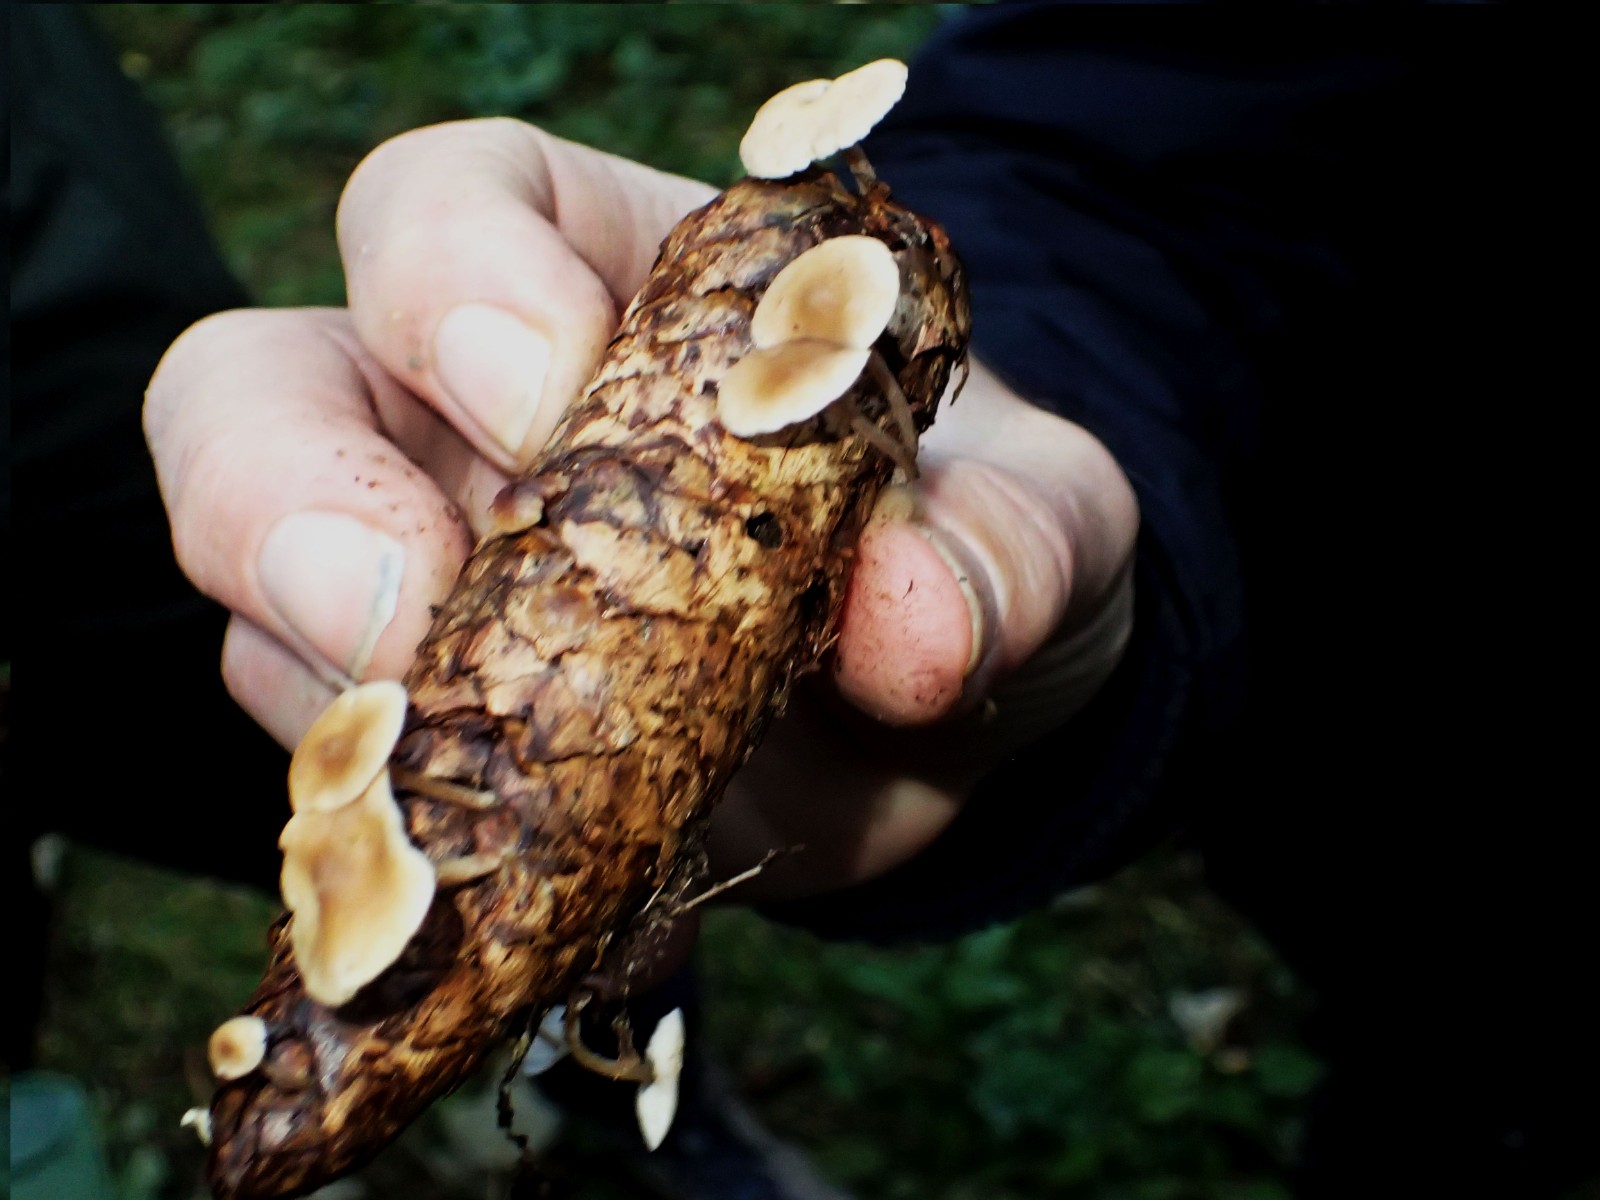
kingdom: Fungi
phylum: Basidiomycota
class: Agaricomycetes
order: Agaricales
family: Marasmiaceae
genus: Baeospora
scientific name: Baeospora myosura
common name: koglebruskhat
